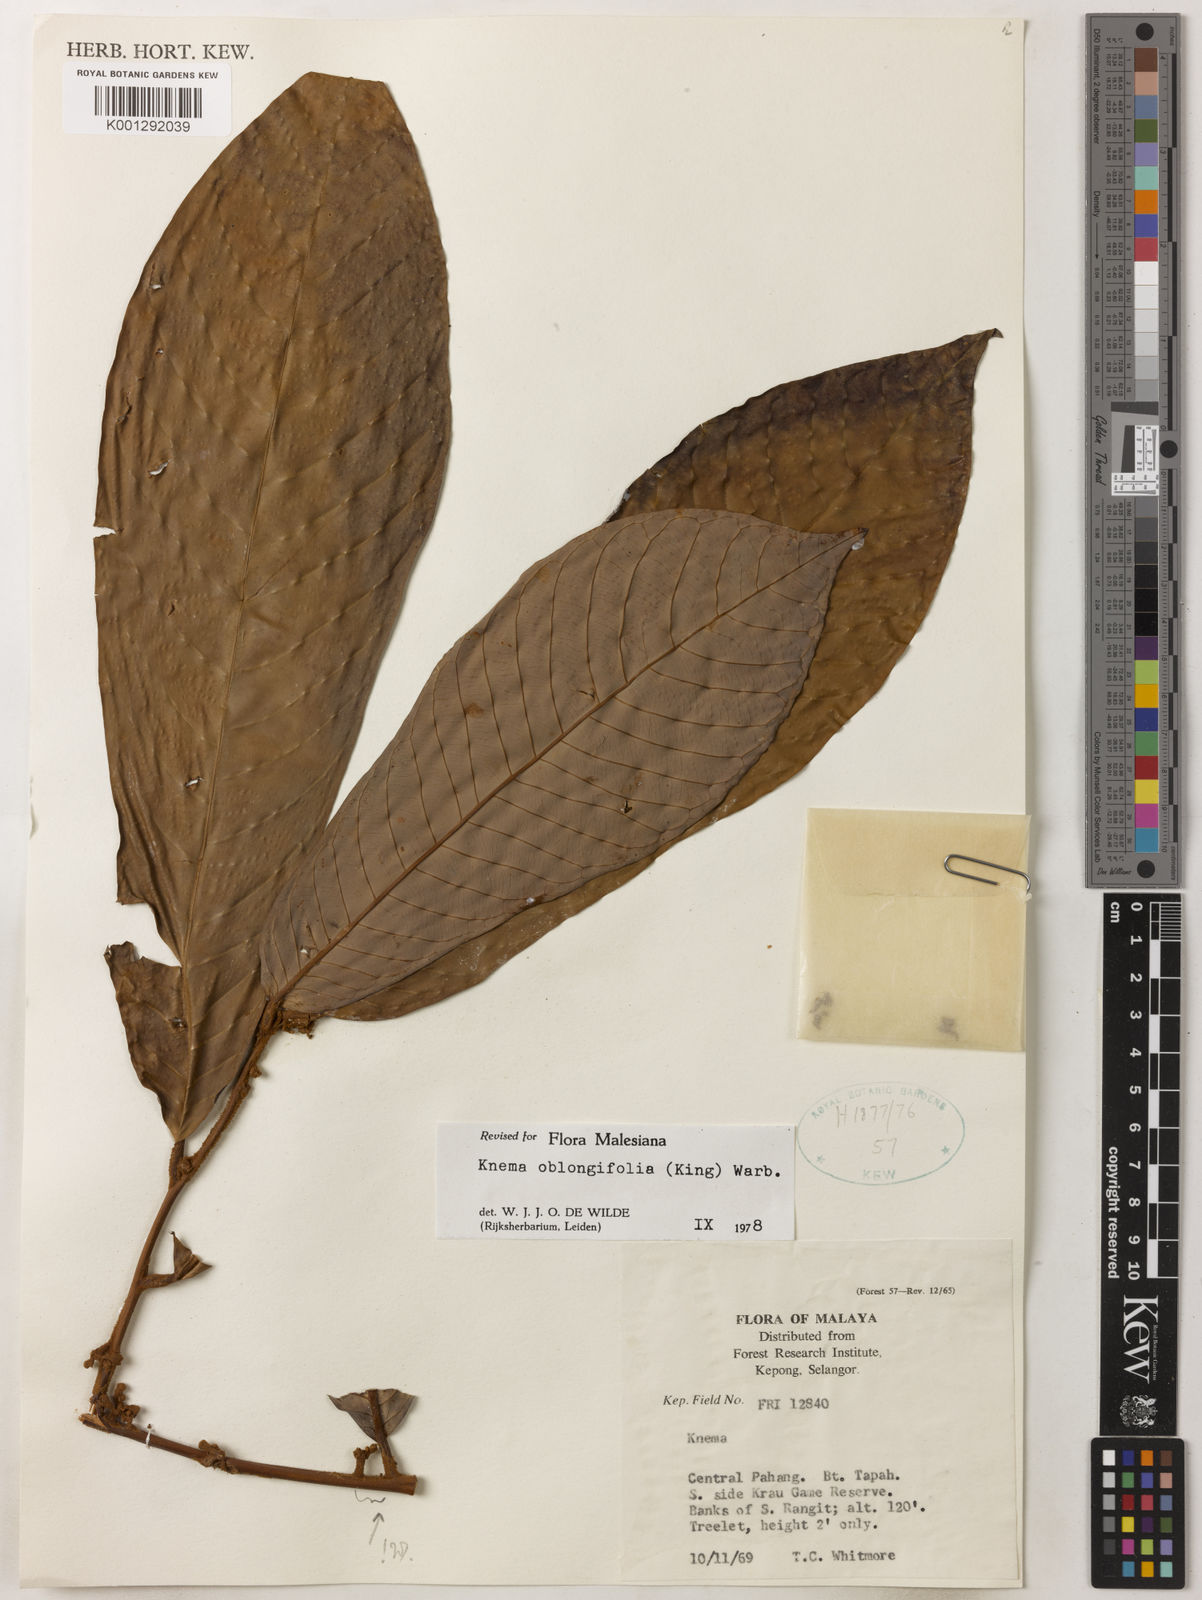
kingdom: Plantae
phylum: Tracheophyta
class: Magnoliopsida
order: Magnoliales
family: Myristicaceae
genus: Knema
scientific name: Knema oblongifolia
